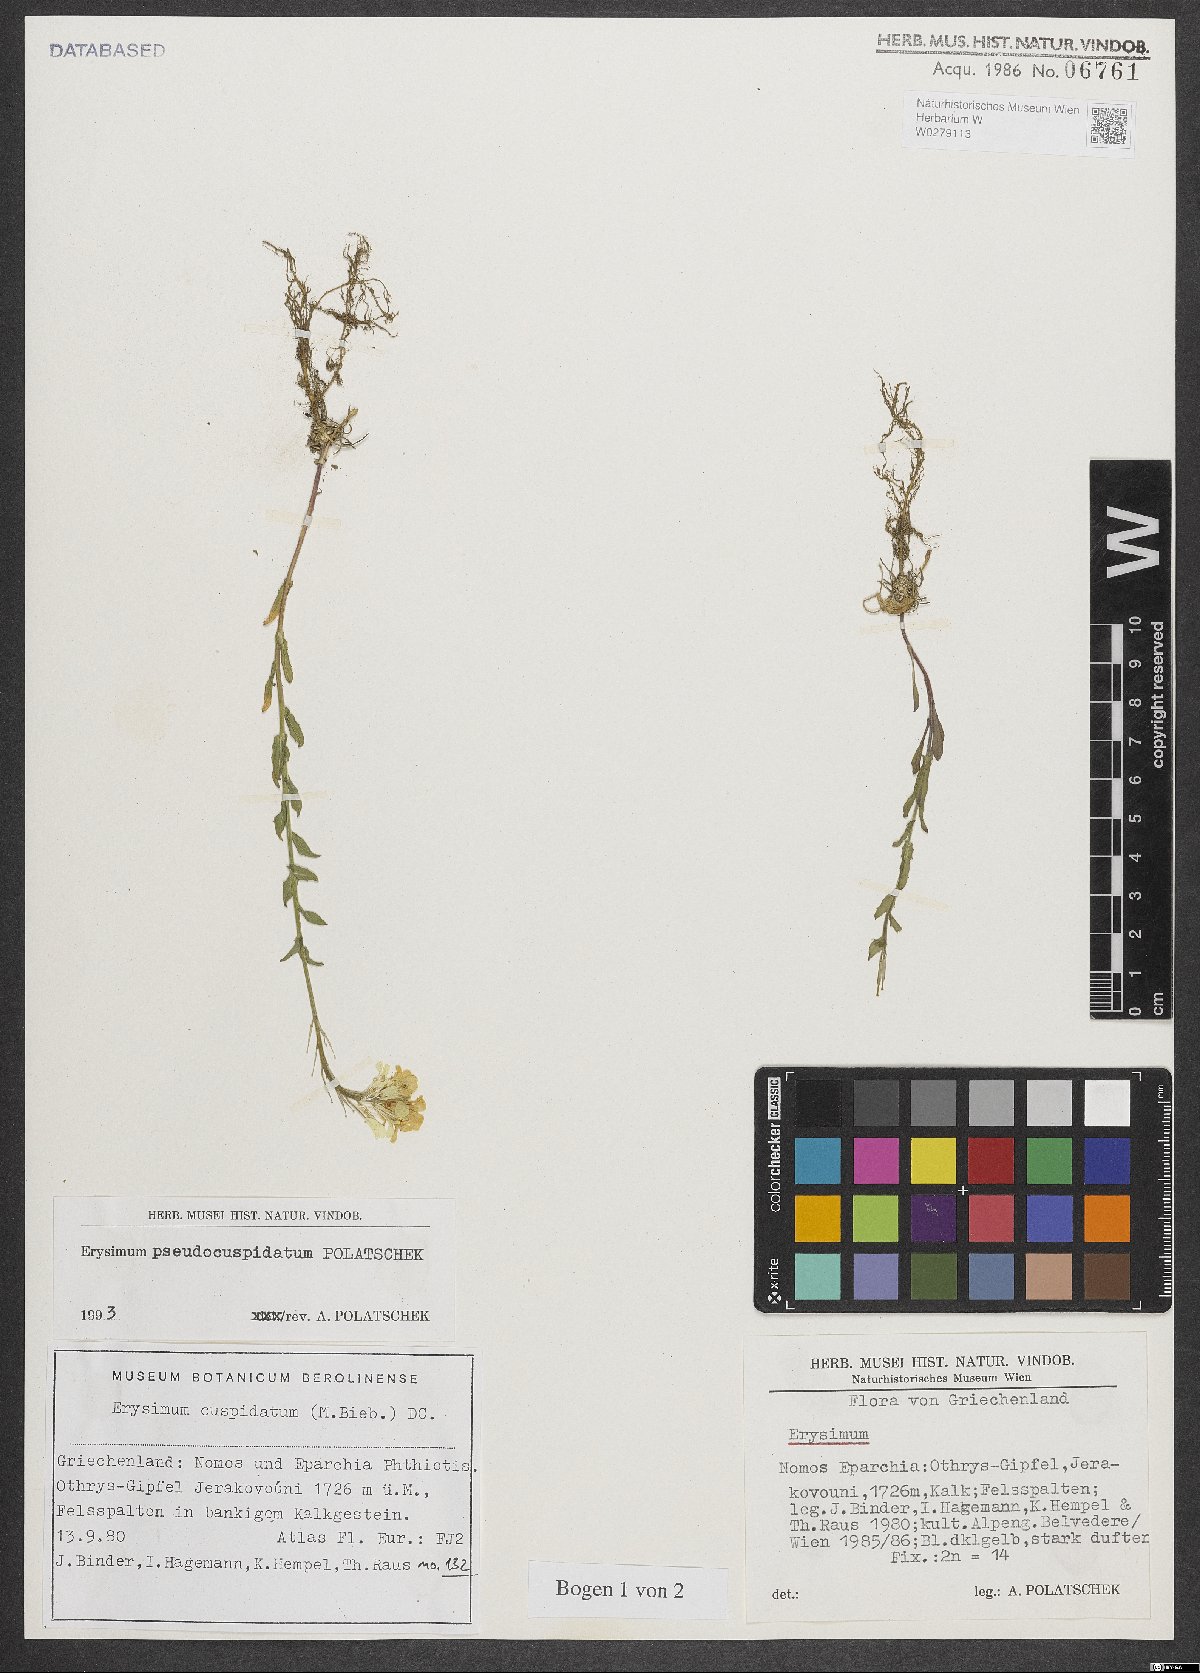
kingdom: Plantae
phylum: Tracheophyta
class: Magnoliopsida
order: Brassicales
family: Brassicaceae
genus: Erysimum
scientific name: Erysimum pseudocuspidatum
